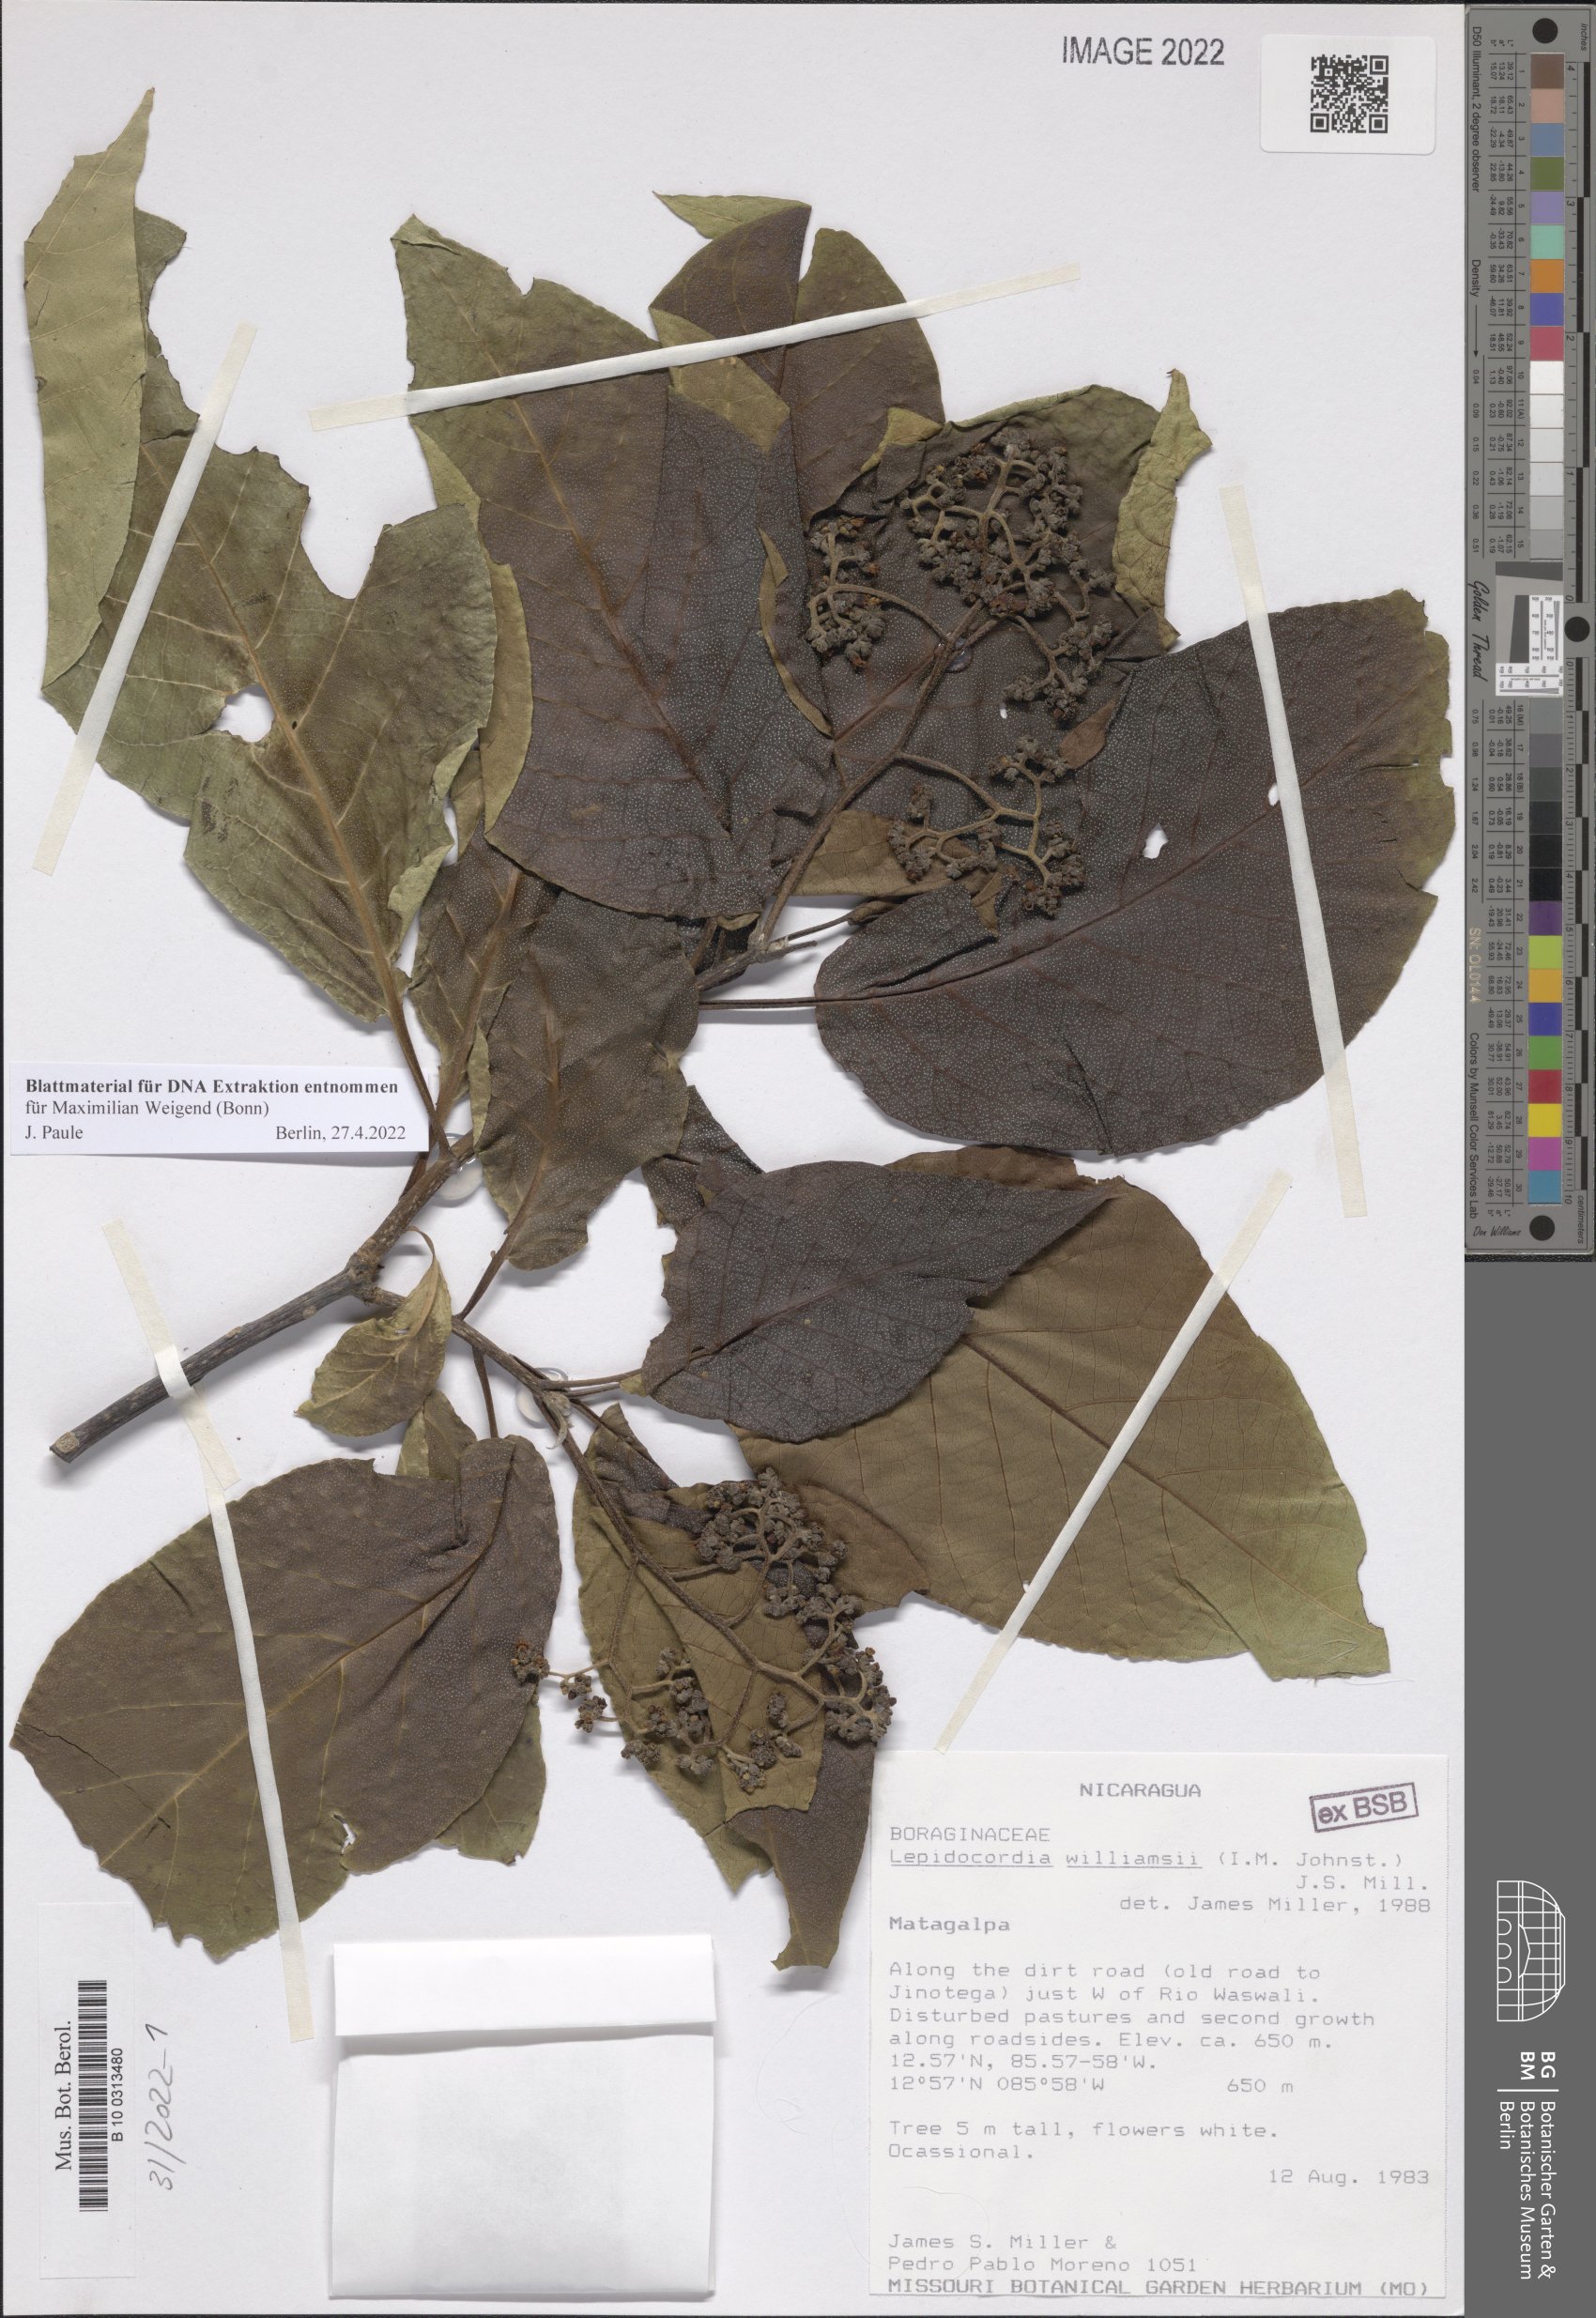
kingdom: Plantae
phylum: Tracheophyta
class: Magnoliopsida
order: Boraginales
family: Ehretiaceae
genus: Lepidocordia
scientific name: Lepidocordia williamsii
